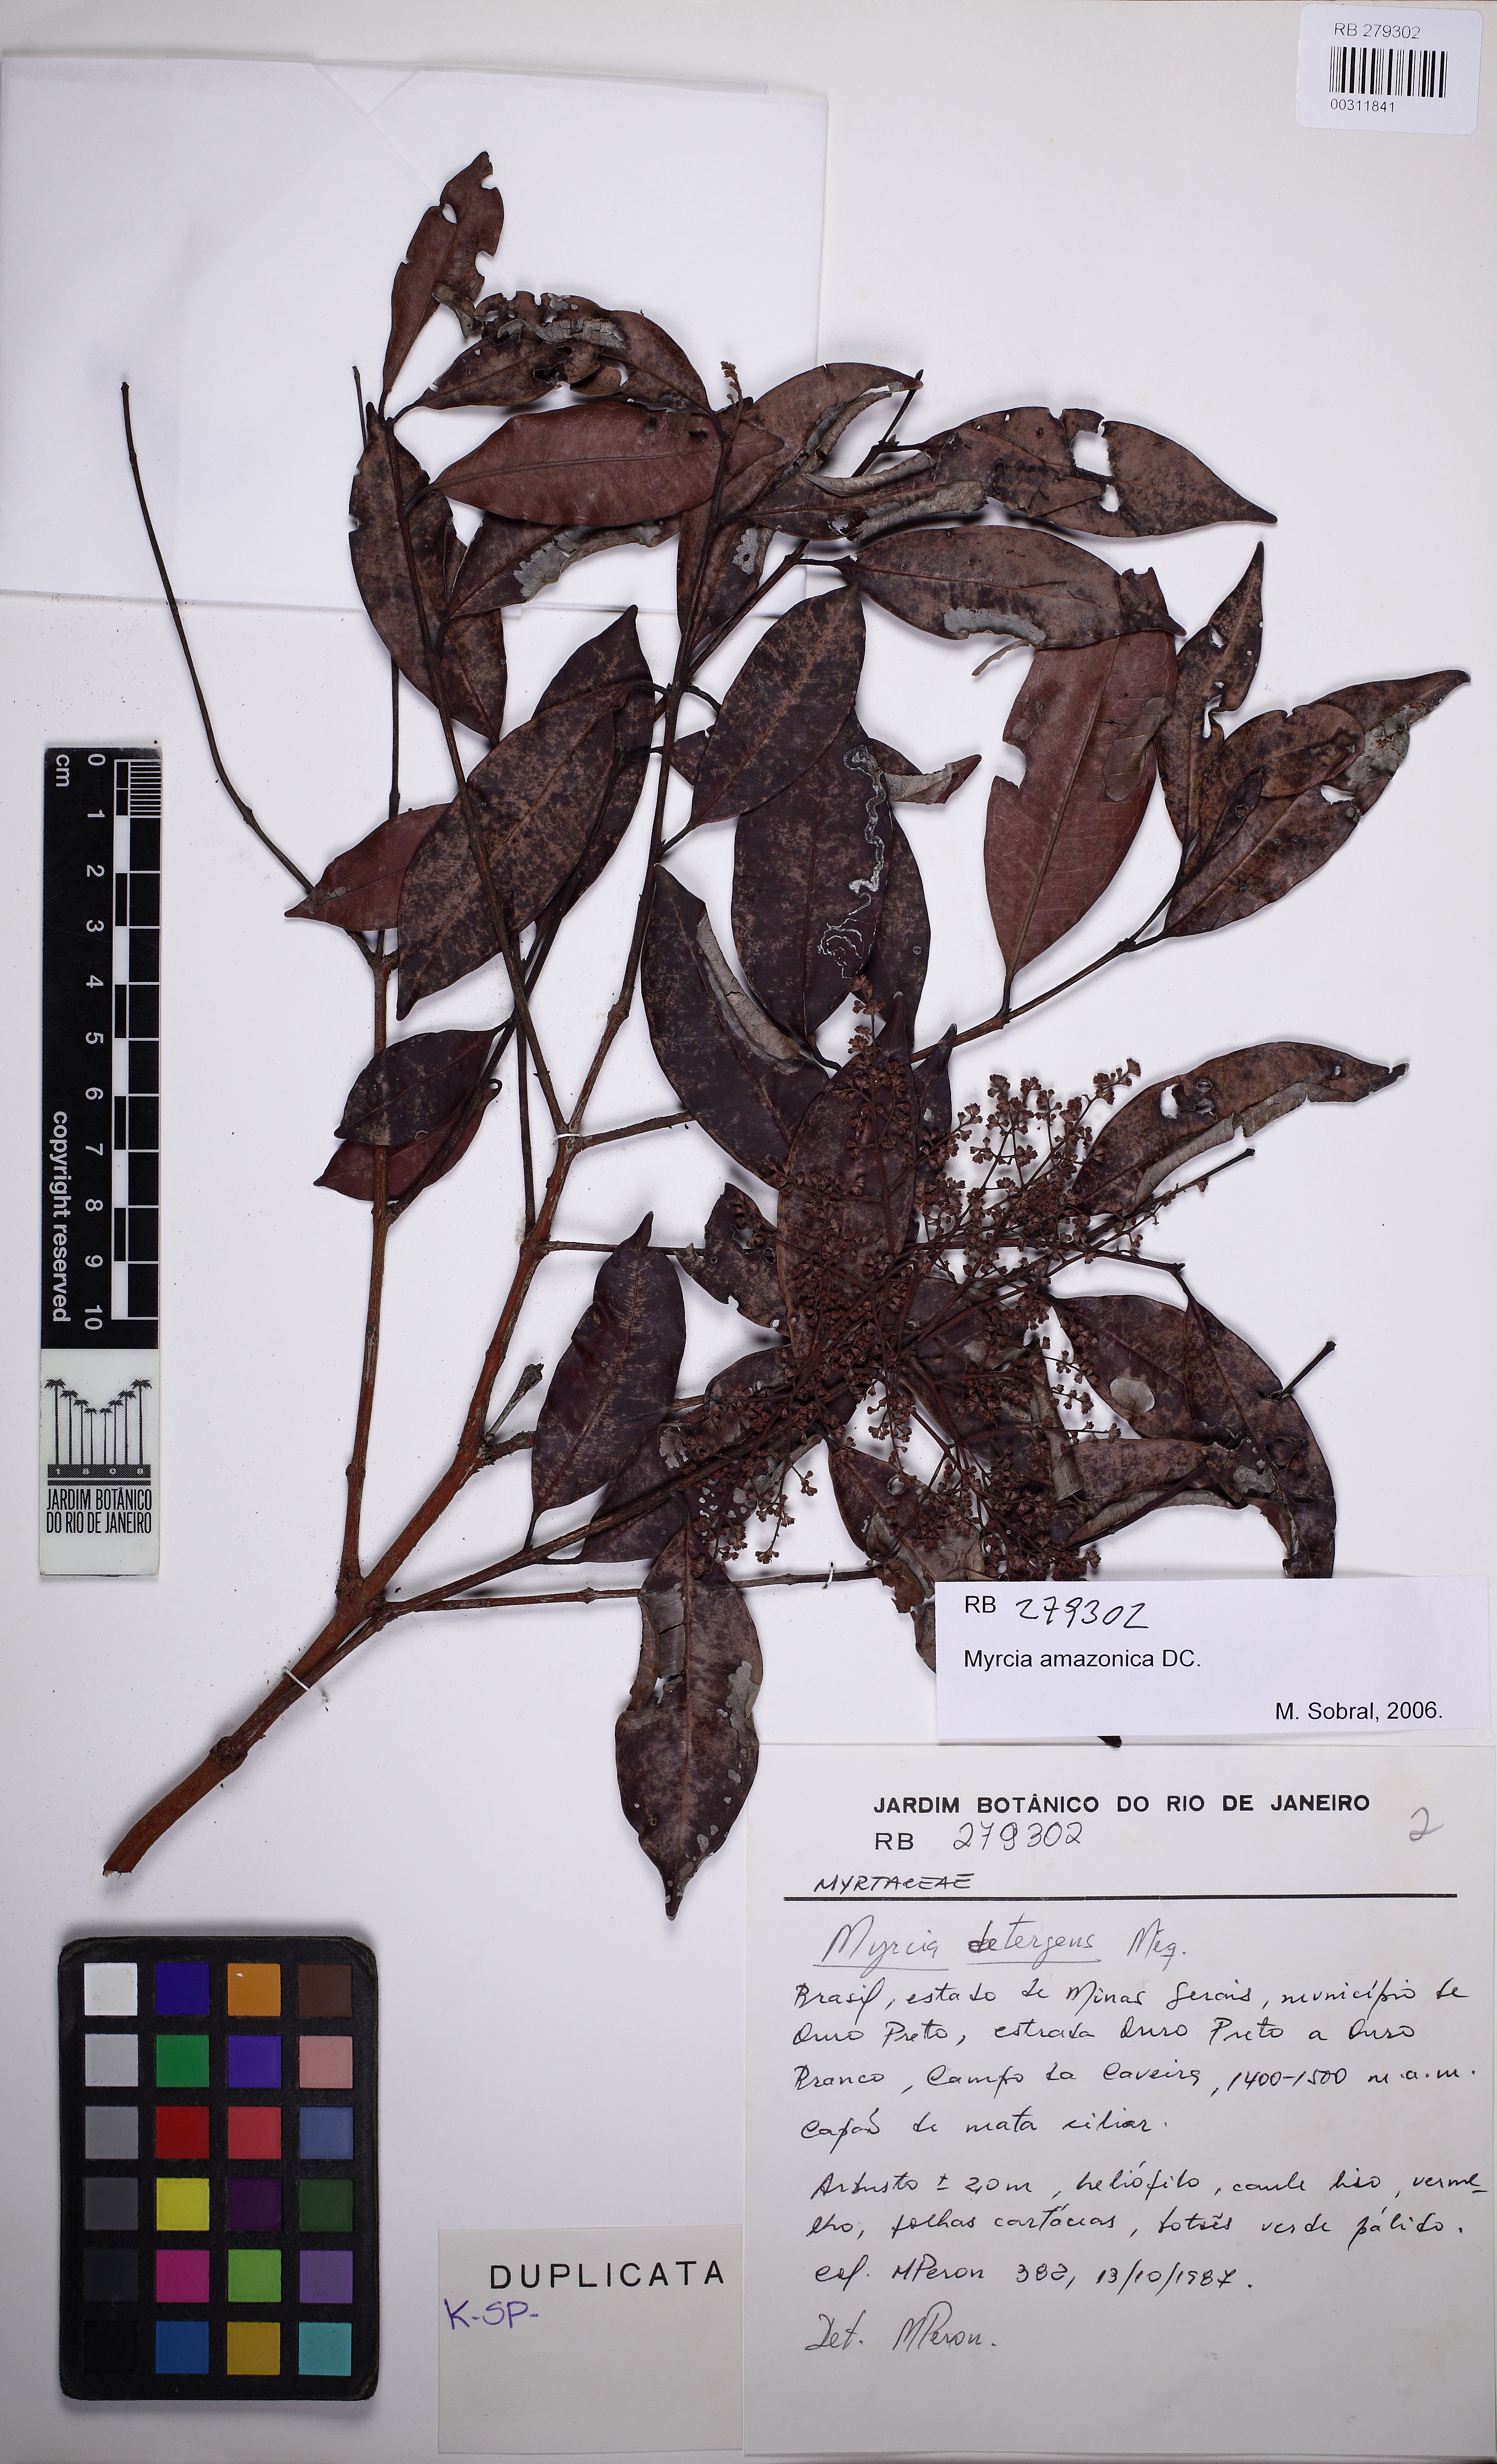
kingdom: Plantae
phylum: Tracheophyta
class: Magnoliopsida
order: Myrtales
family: Myrtaceae
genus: Myrcia
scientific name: Myrcia amazonica
